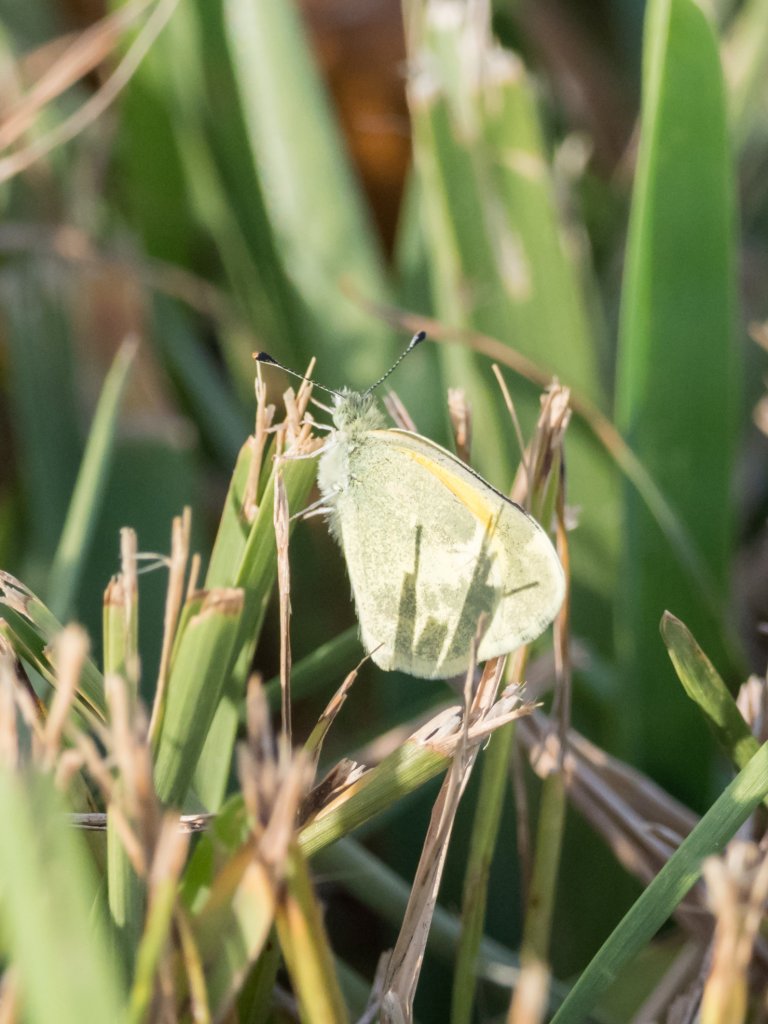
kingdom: Animalia
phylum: Arthropoda
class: Insecta
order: Lepidoptera
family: Pieridae
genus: Nathalis
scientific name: Nathalis iole
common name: Dainty Sulphur
